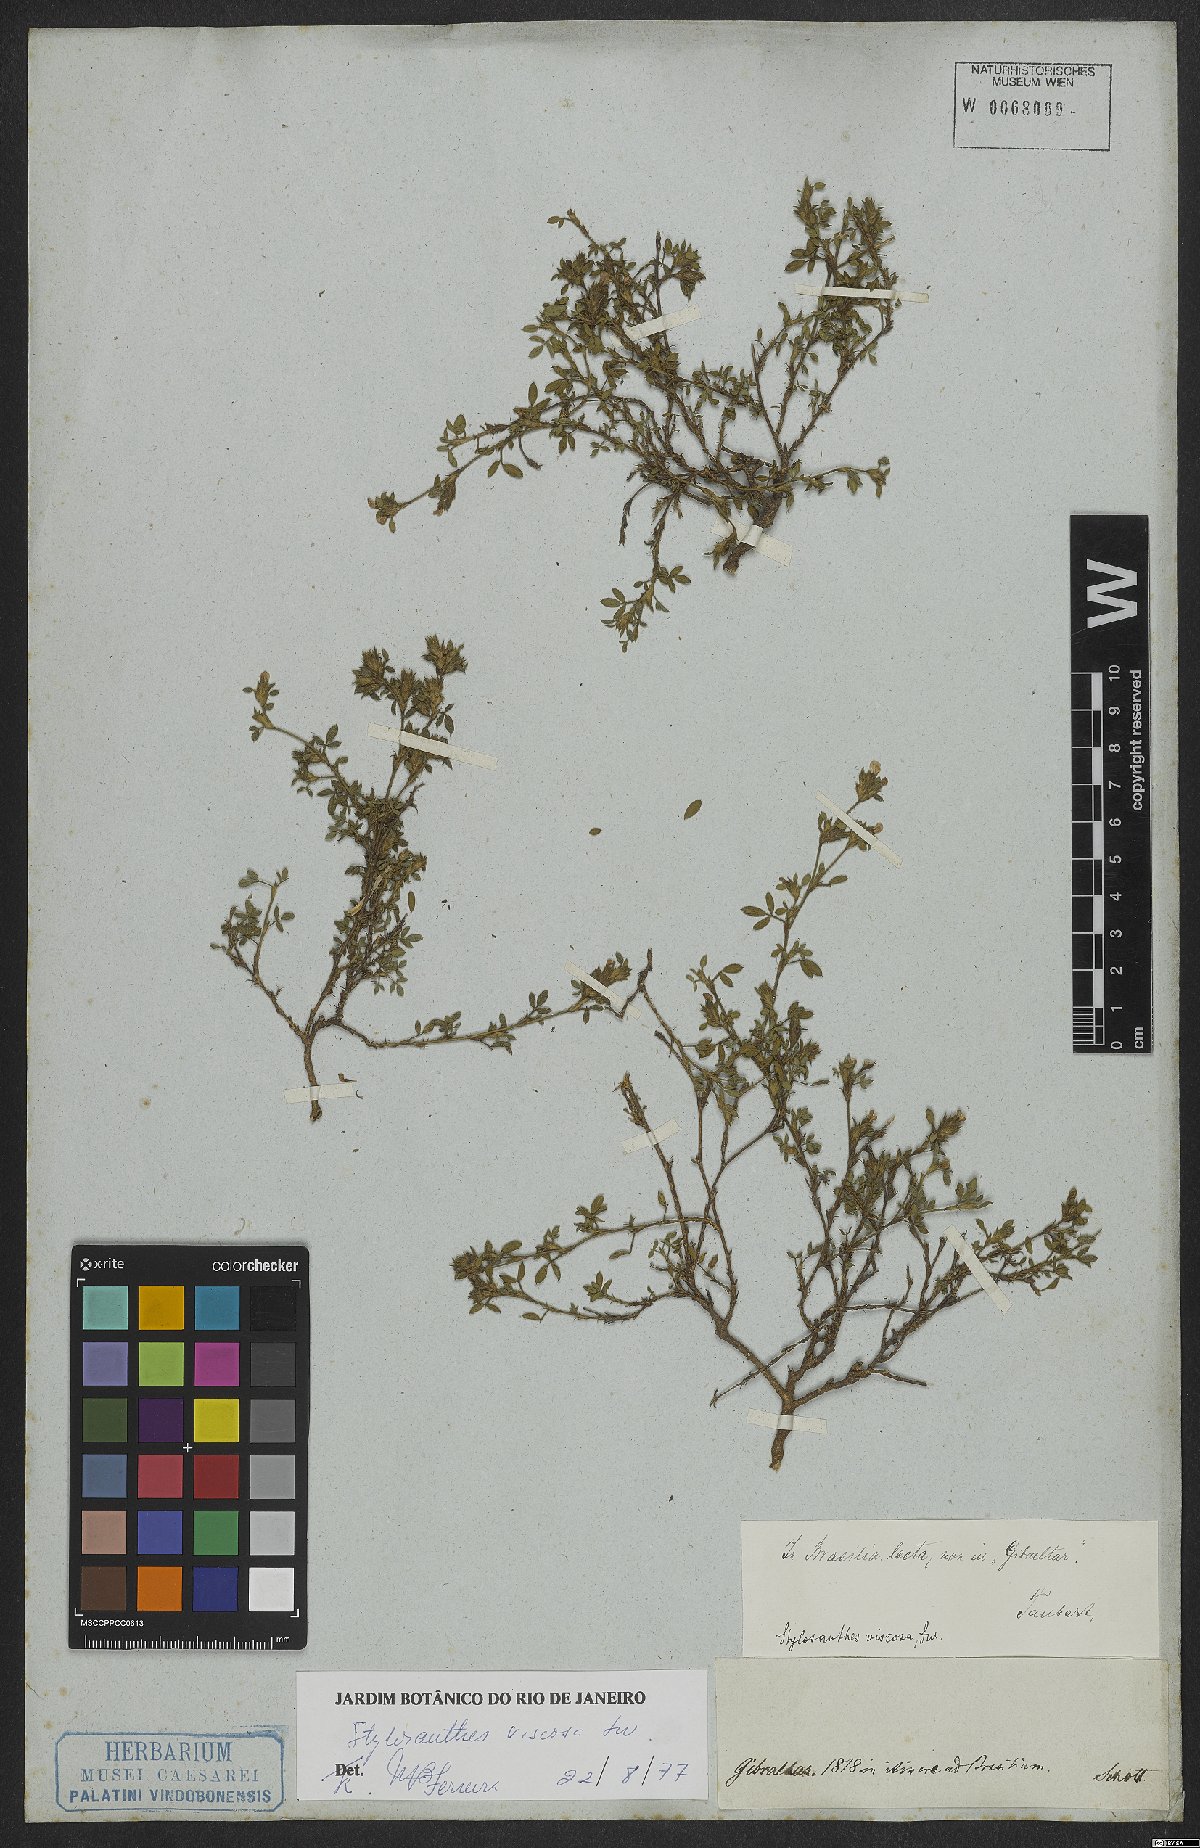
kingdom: Plantae
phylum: Tracheophyta
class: Magnoliopsida
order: Fabales
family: Fabaceae
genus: Stylosanthes
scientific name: Stylosanthes viscosa
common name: Viscid pencil-flower
